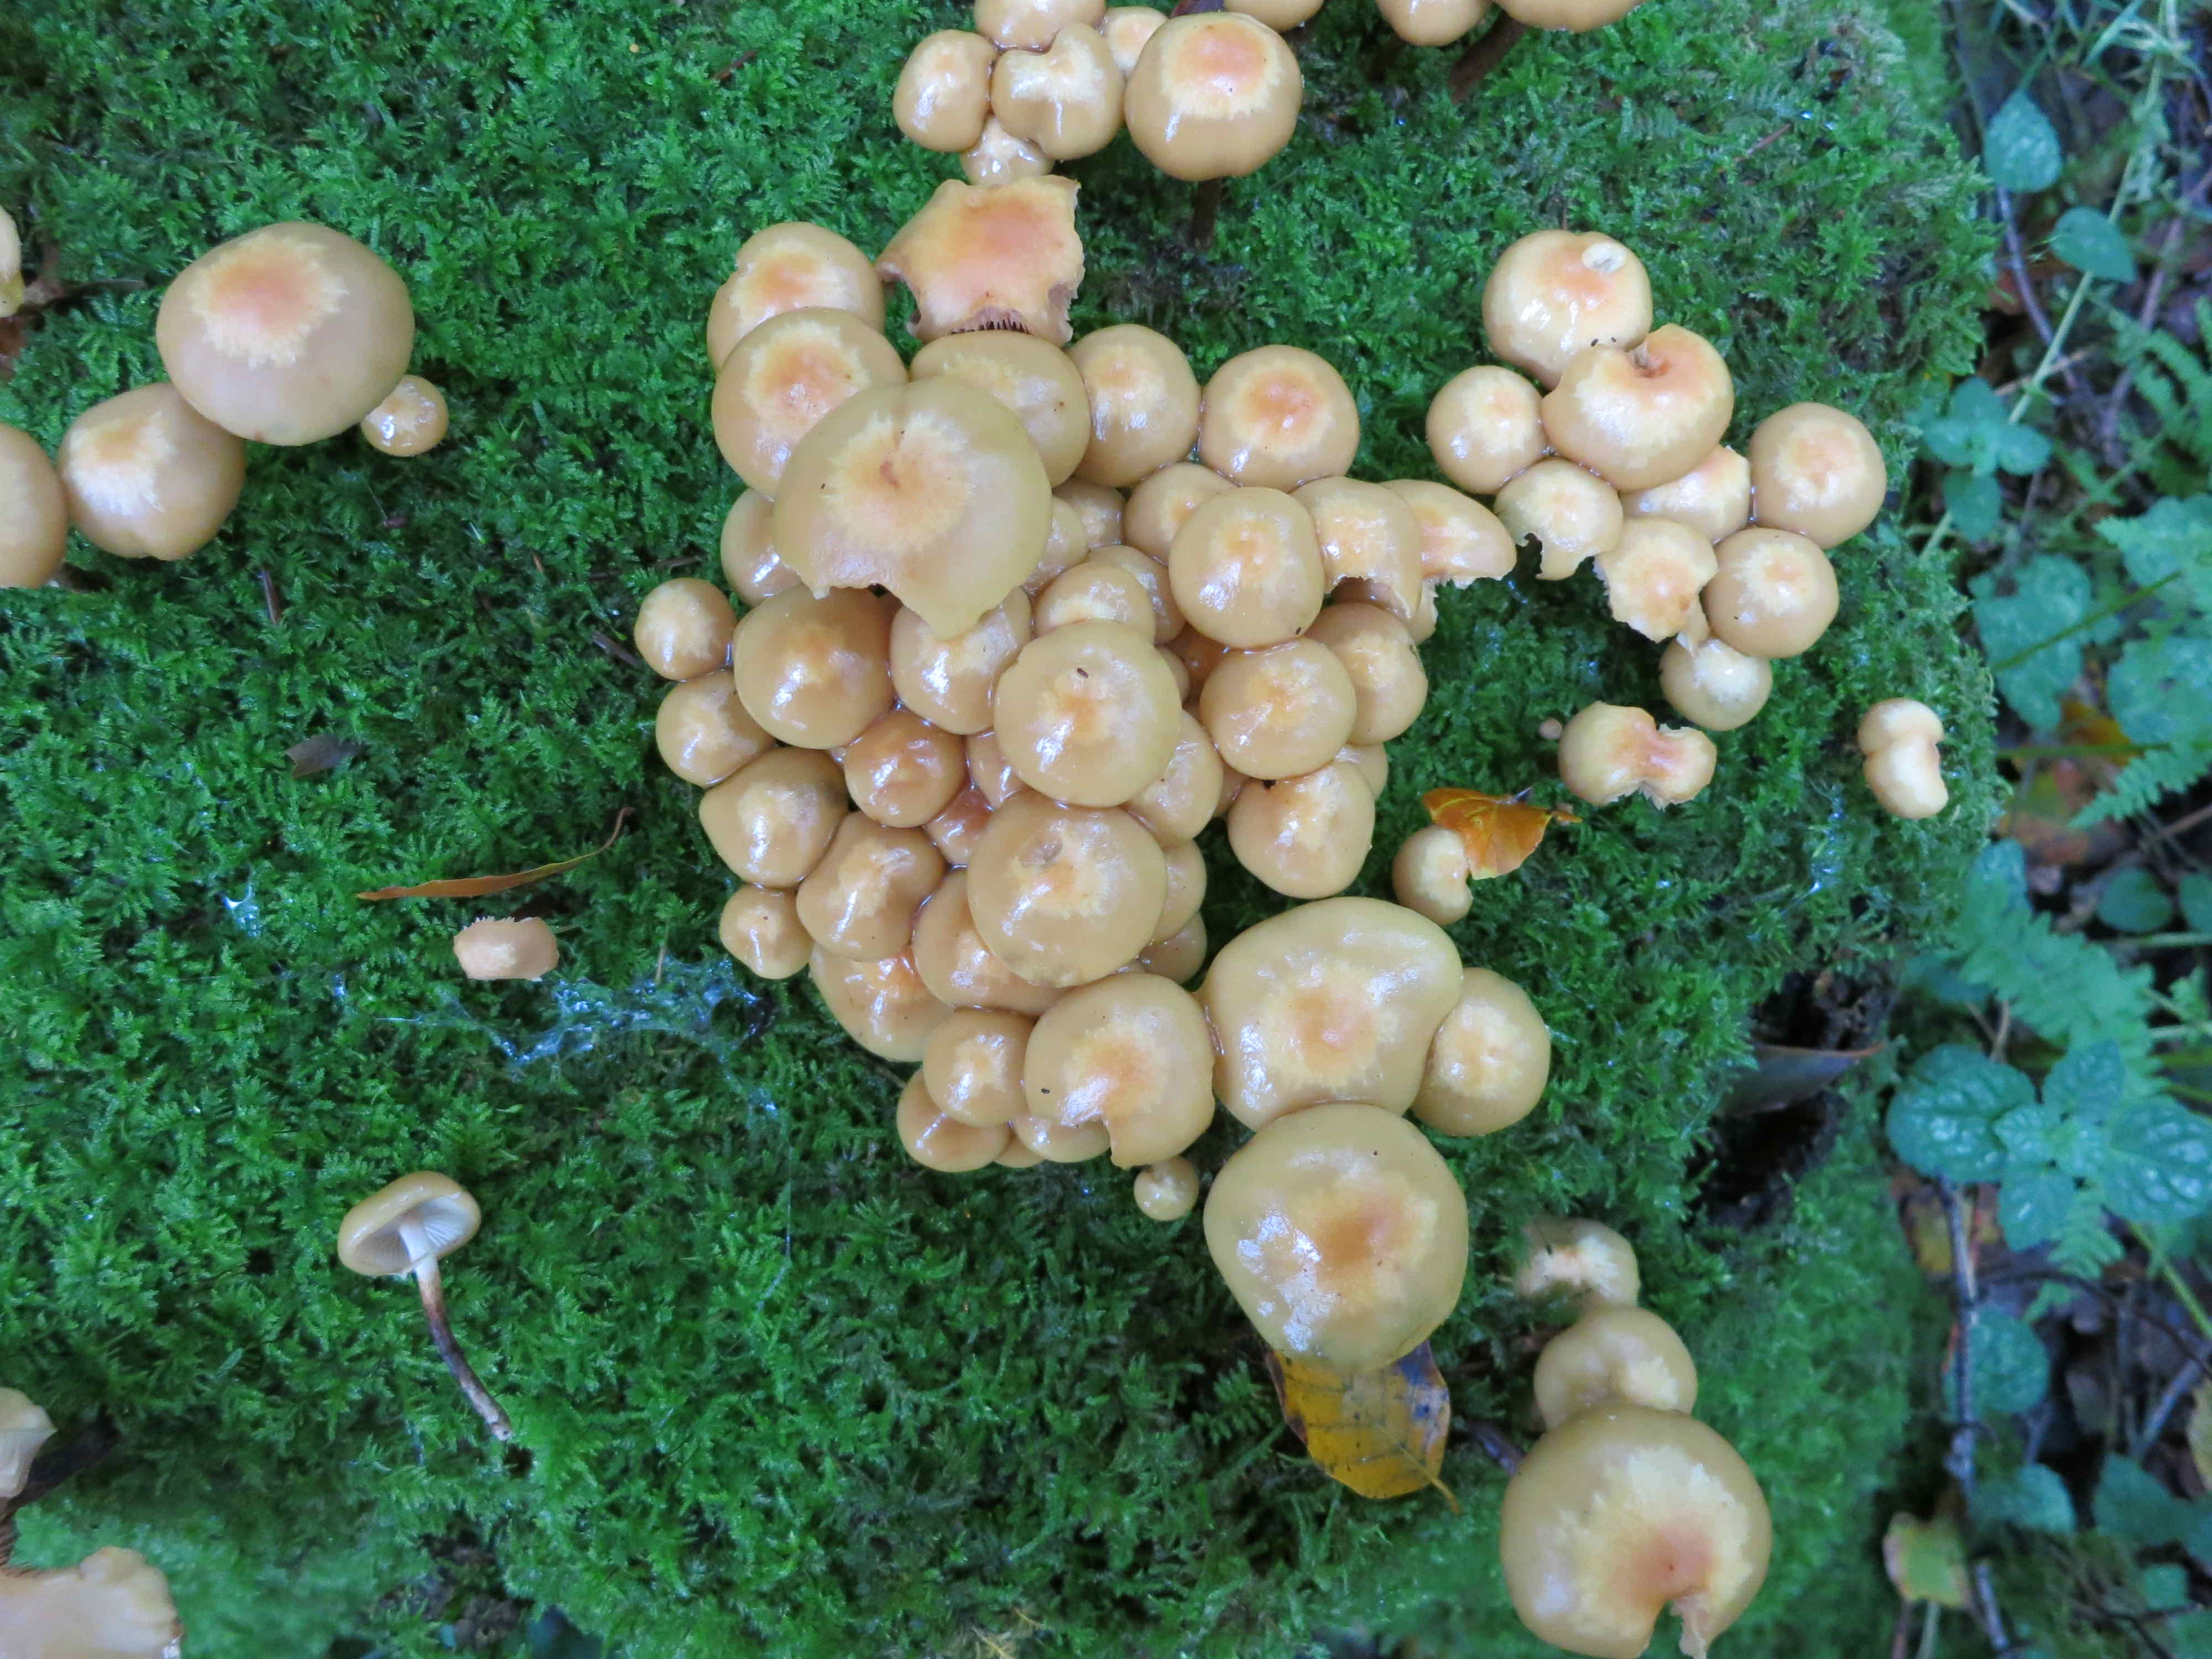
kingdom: Fungi
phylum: Basidiomycota
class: Agaricomycetes
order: Agaricales
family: Strophariaceae
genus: Kuehneromyces
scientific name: Kuehneromyces mutabilis
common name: foranderlig skælhat
